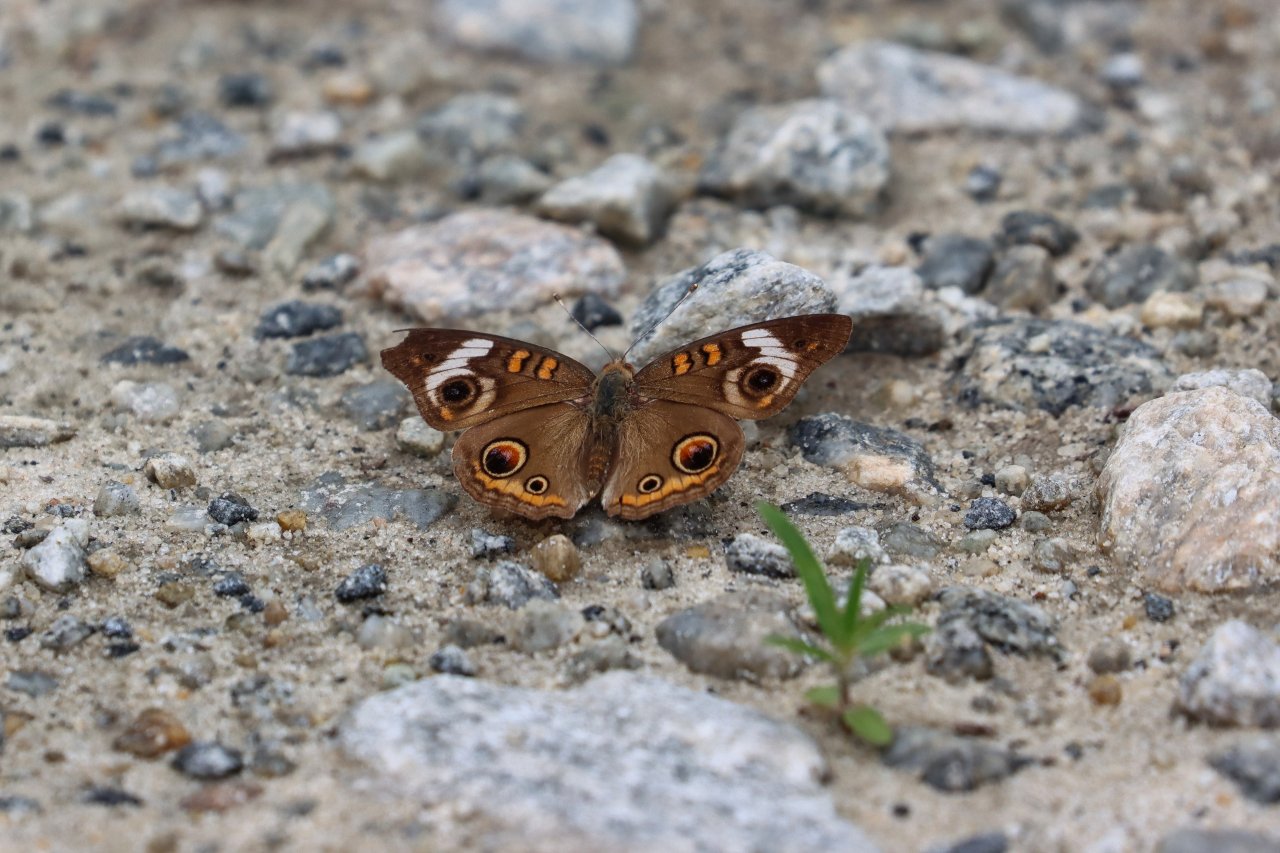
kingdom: Animalia
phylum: Arthropoda
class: Insecta
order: Lepidoptera
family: Nymphalidae
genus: Junonia
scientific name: Junonia coenia
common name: Common Buckeye
